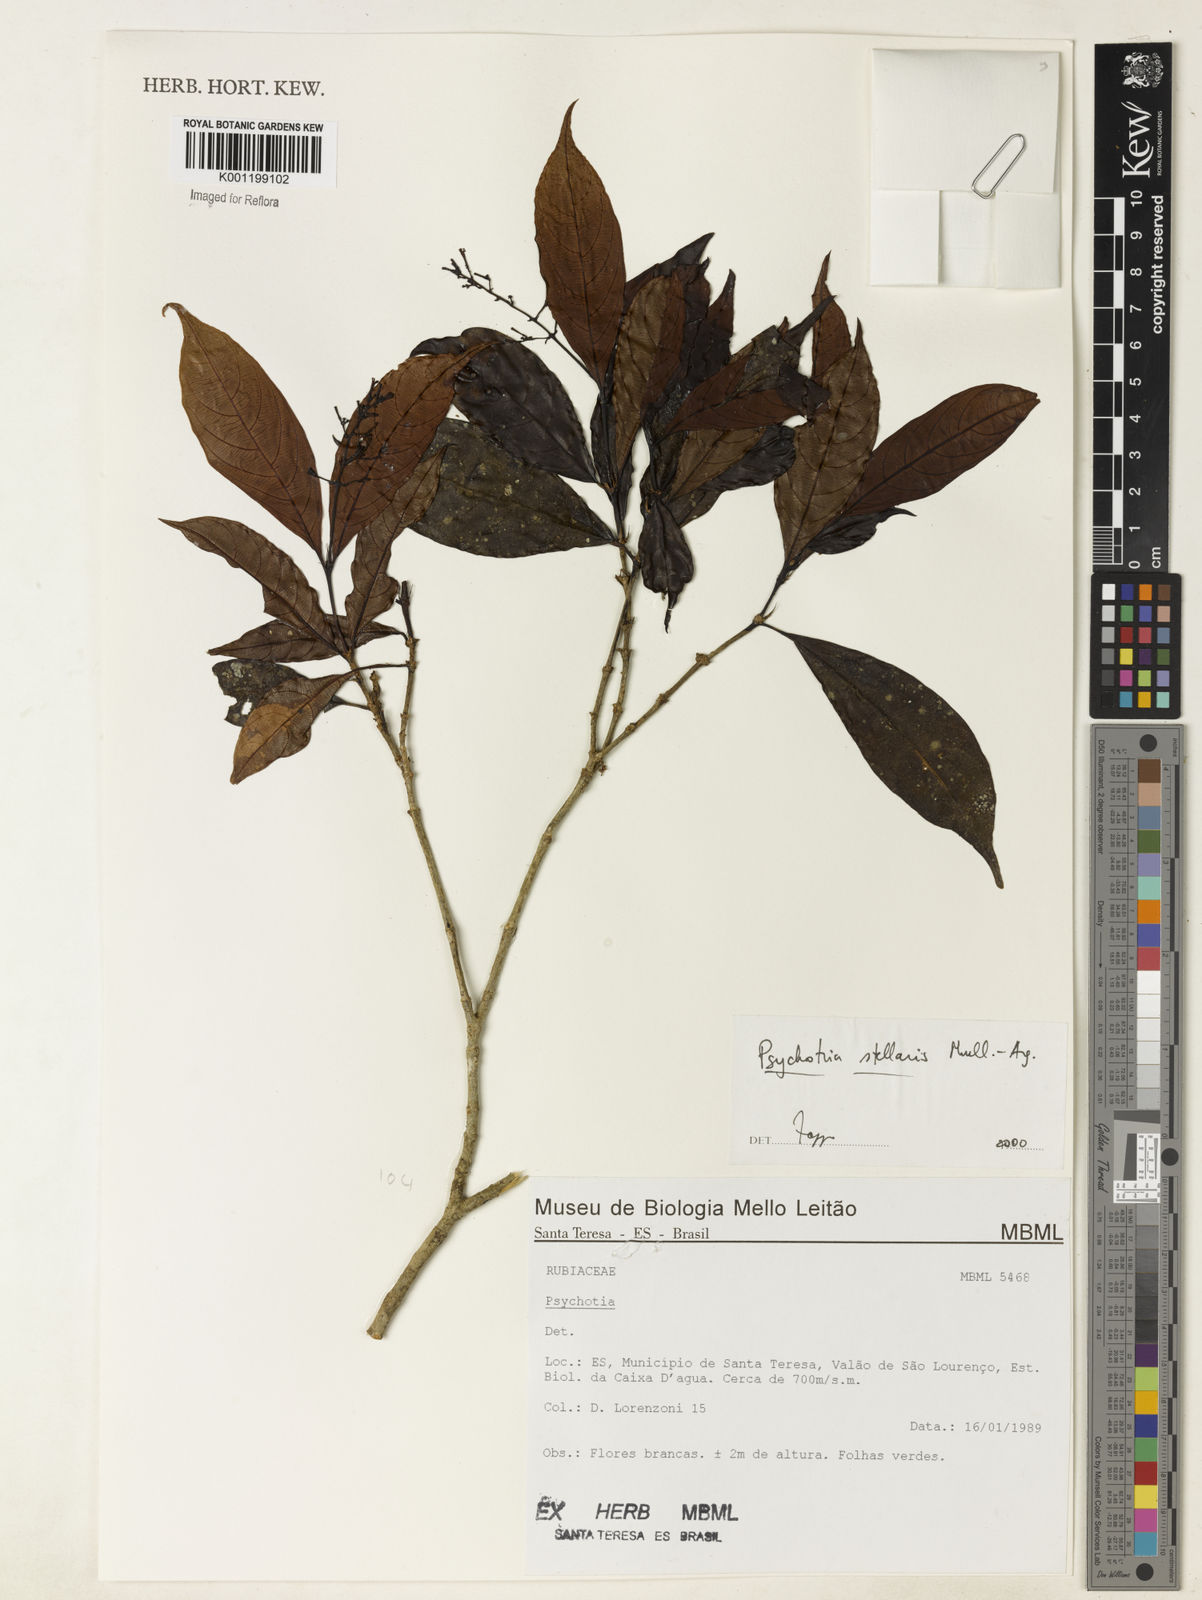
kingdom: Plantae
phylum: Tracheophyta
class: Magnoliopsida
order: Gentianales
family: Rubiaceae
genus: Psychotria
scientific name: Psychotria
